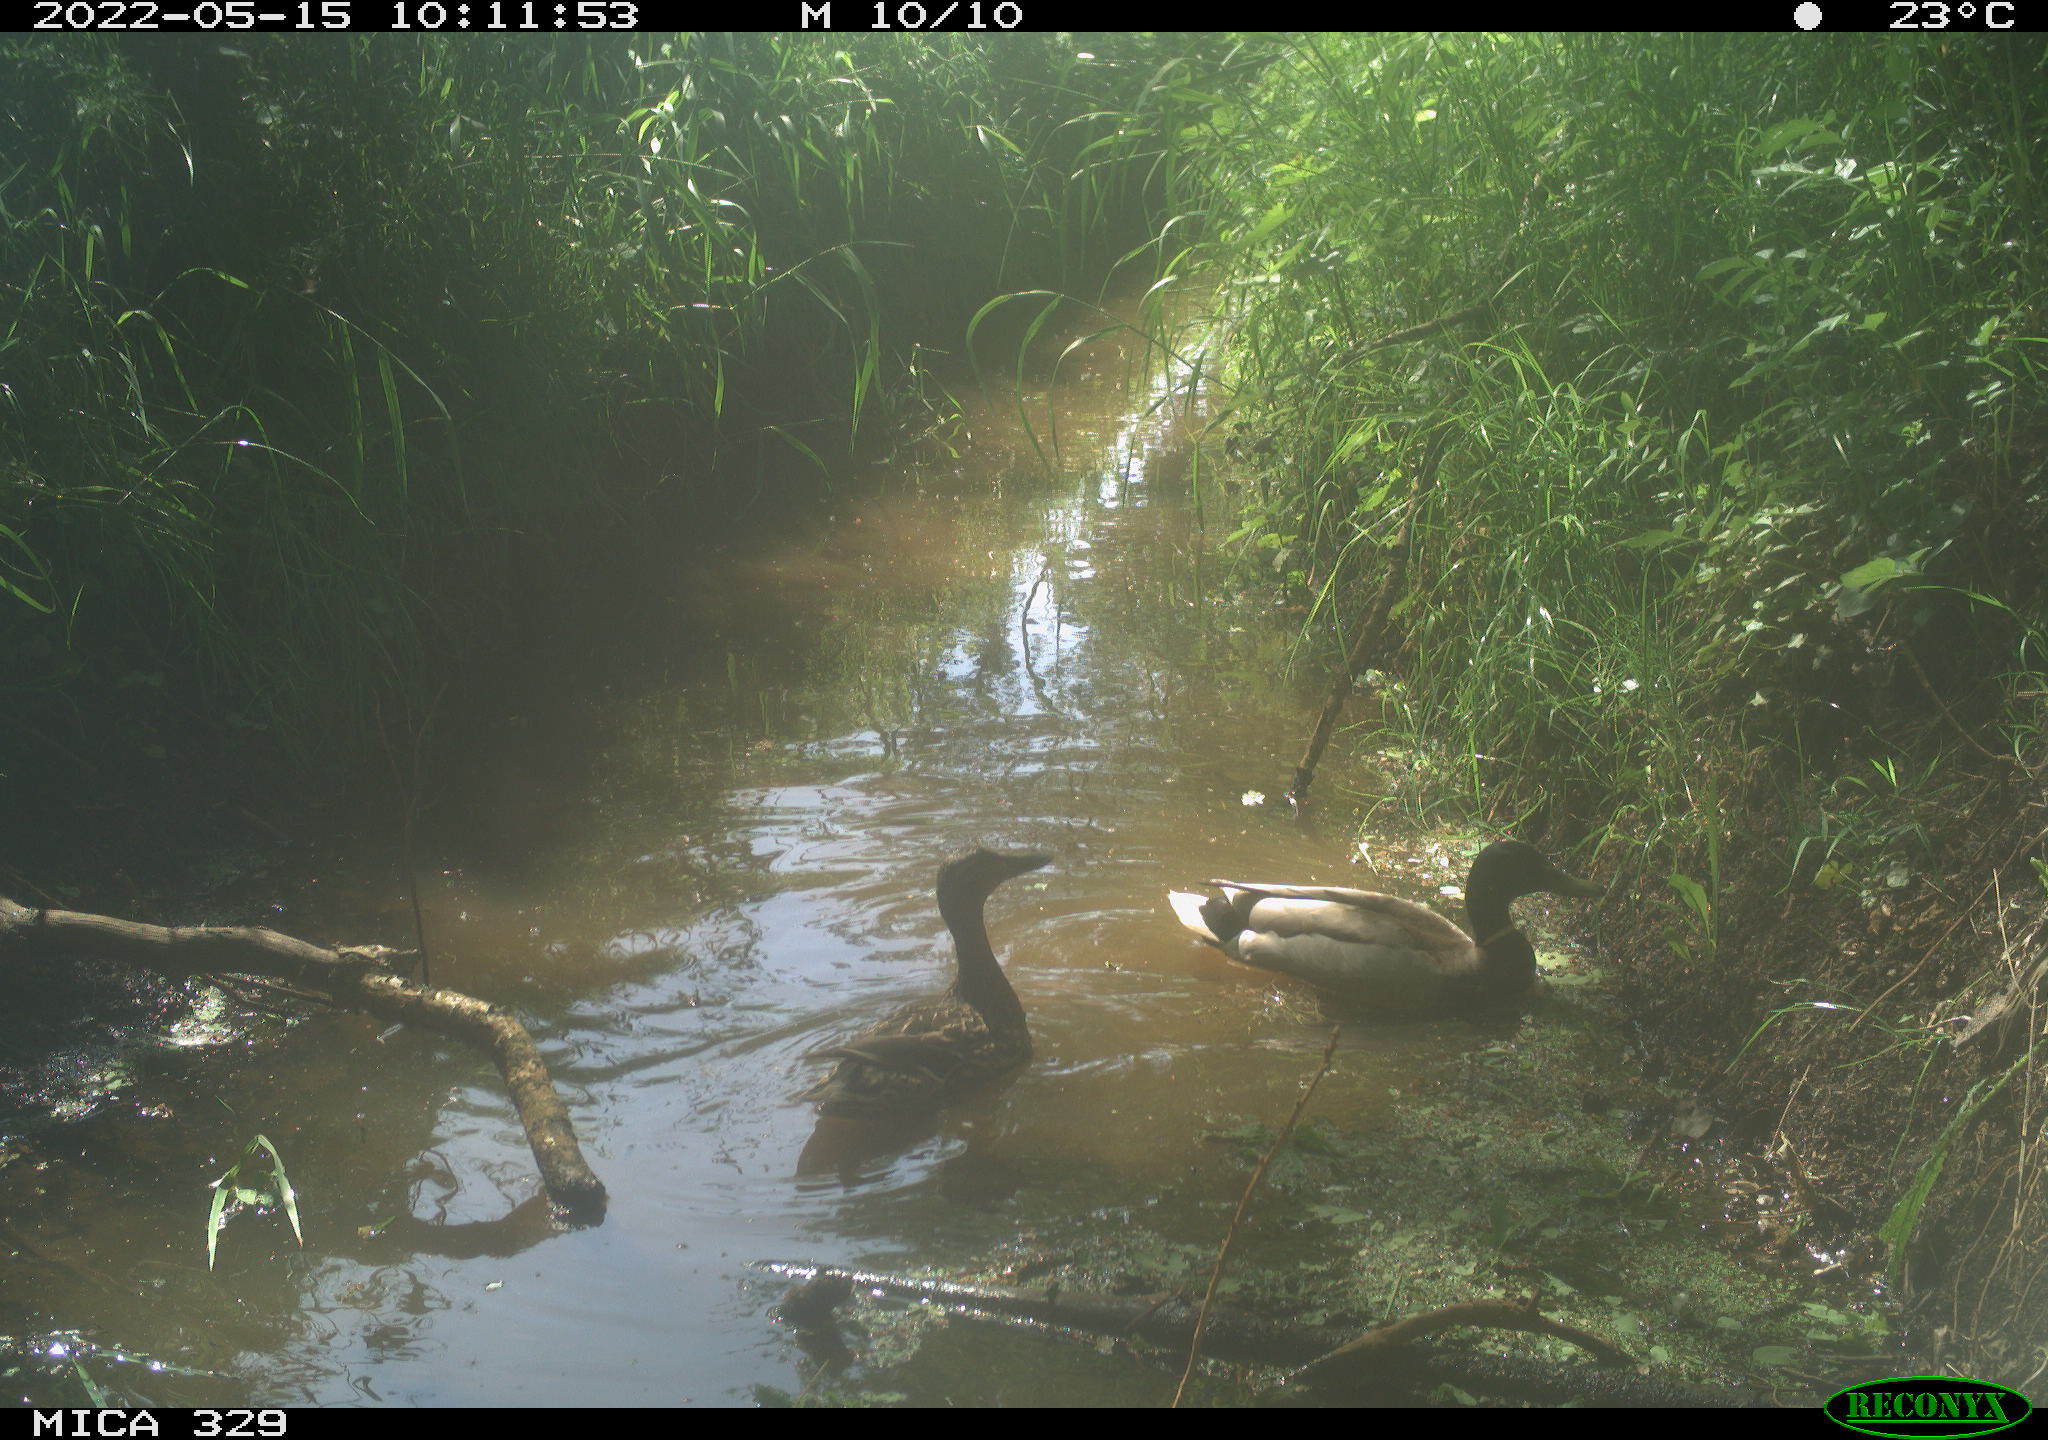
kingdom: Animalia
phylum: Chordata
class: Aves
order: Anseriformes
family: Anatidae
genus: Anas
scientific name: Anas platyrhynchos
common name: Mallard
